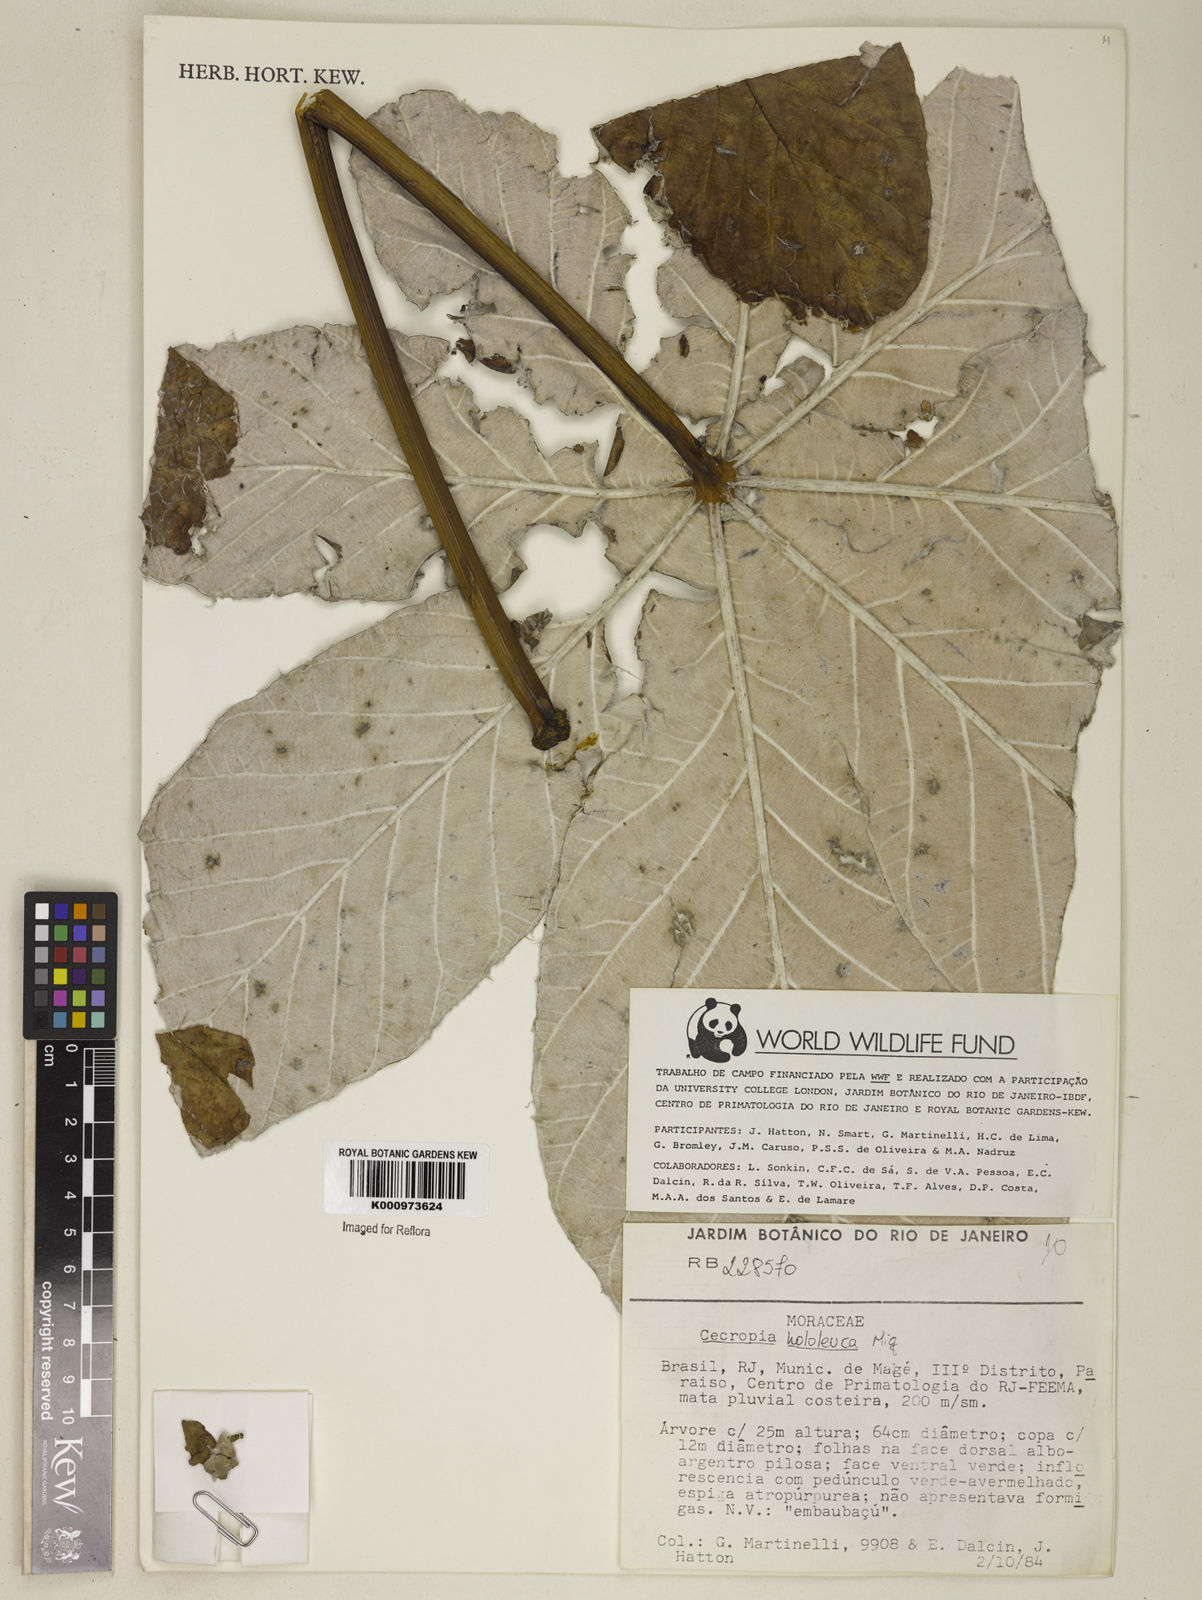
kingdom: Plantae
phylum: Tracheophyta
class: Magnoliopsida
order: Rosales
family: Urticaceae
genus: Cecropia
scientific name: Cecropia hololeuca
